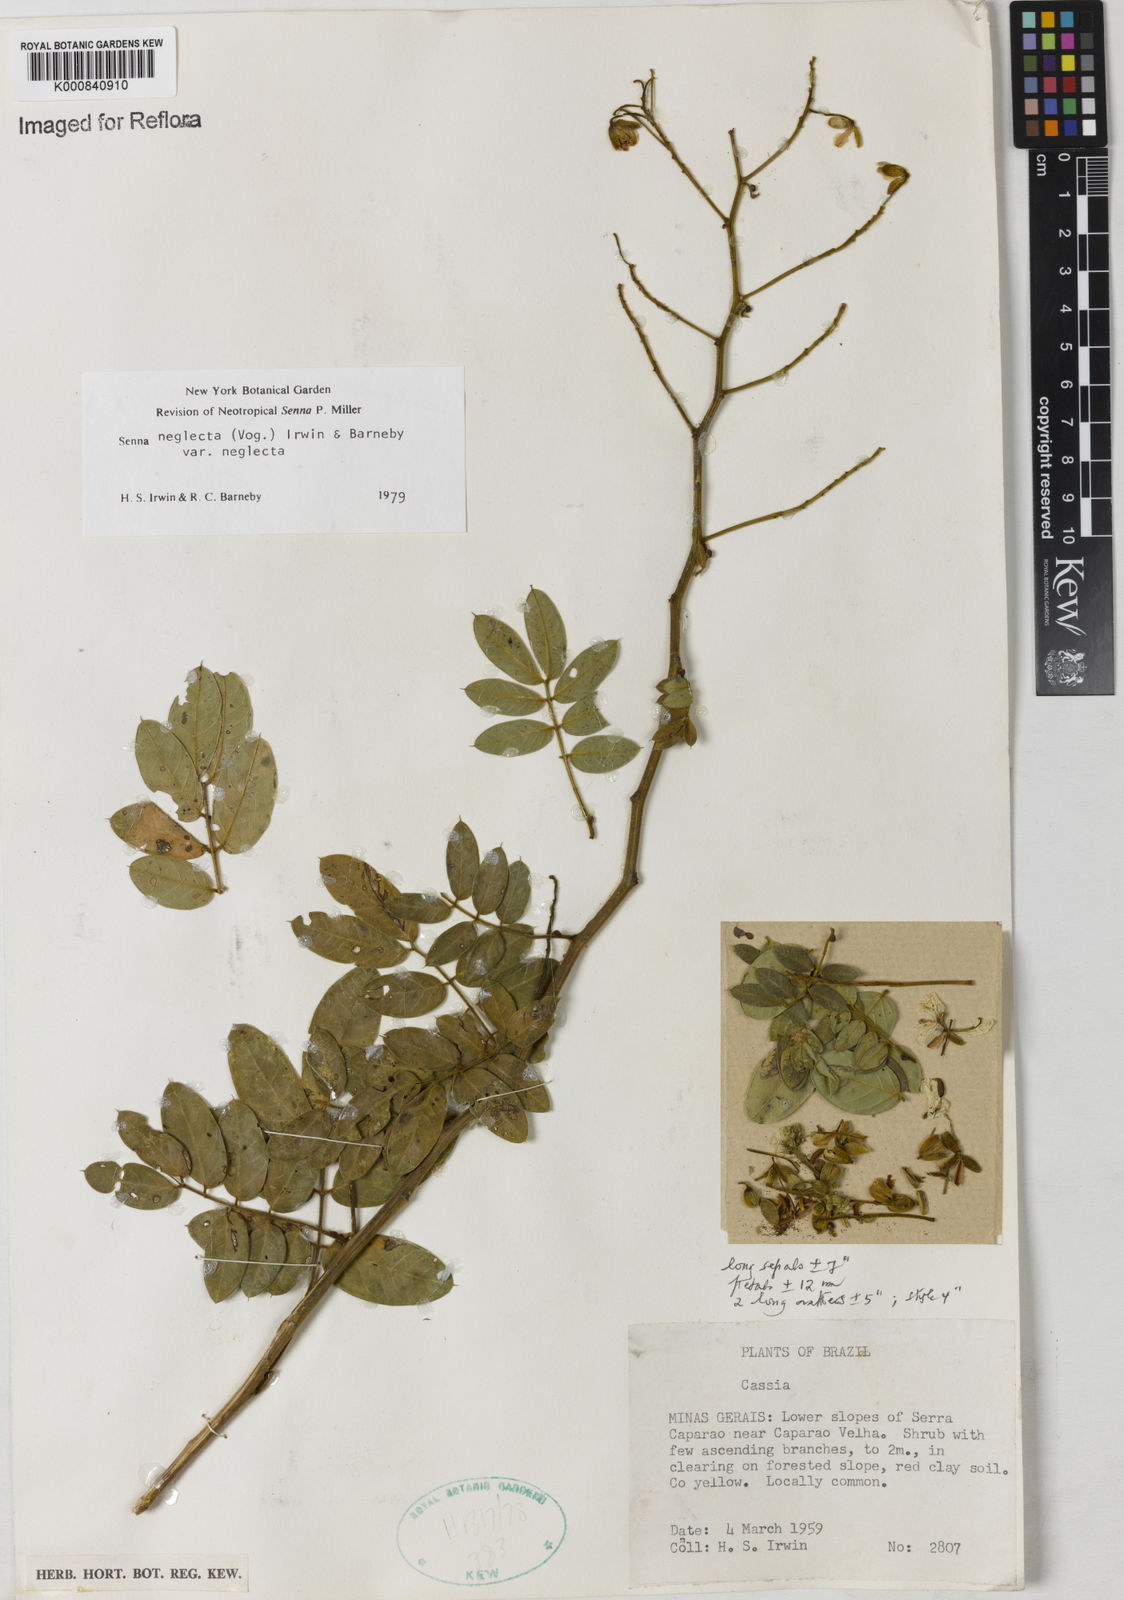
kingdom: Plantae
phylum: Tracheophyta
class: Magnoliopsida
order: Fabales
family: Fabaceae
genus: Senna
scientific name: Senna neglecta
